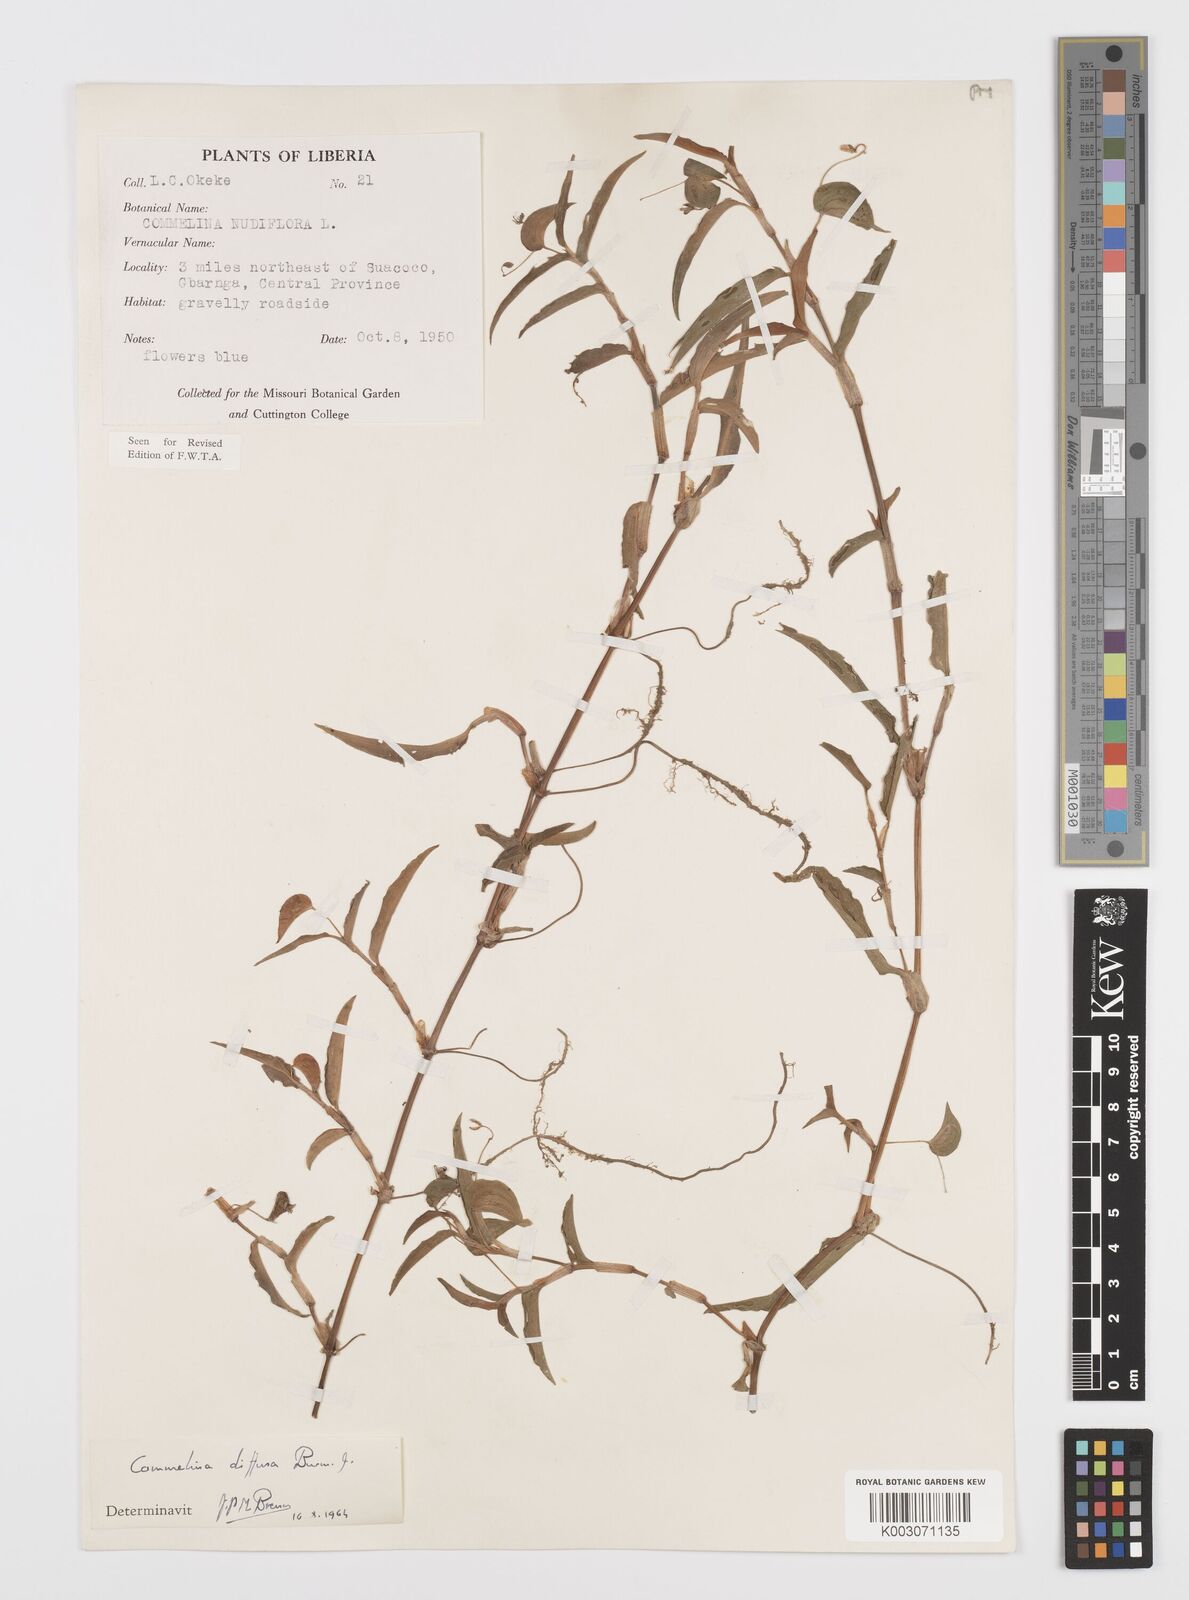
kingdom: Plantae
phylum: Tracheophyta
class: Liliopsida
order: Commelinales
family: Commelinaceae
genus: Commelina
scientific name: Commelina diffusa
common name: Climbing dayflower
